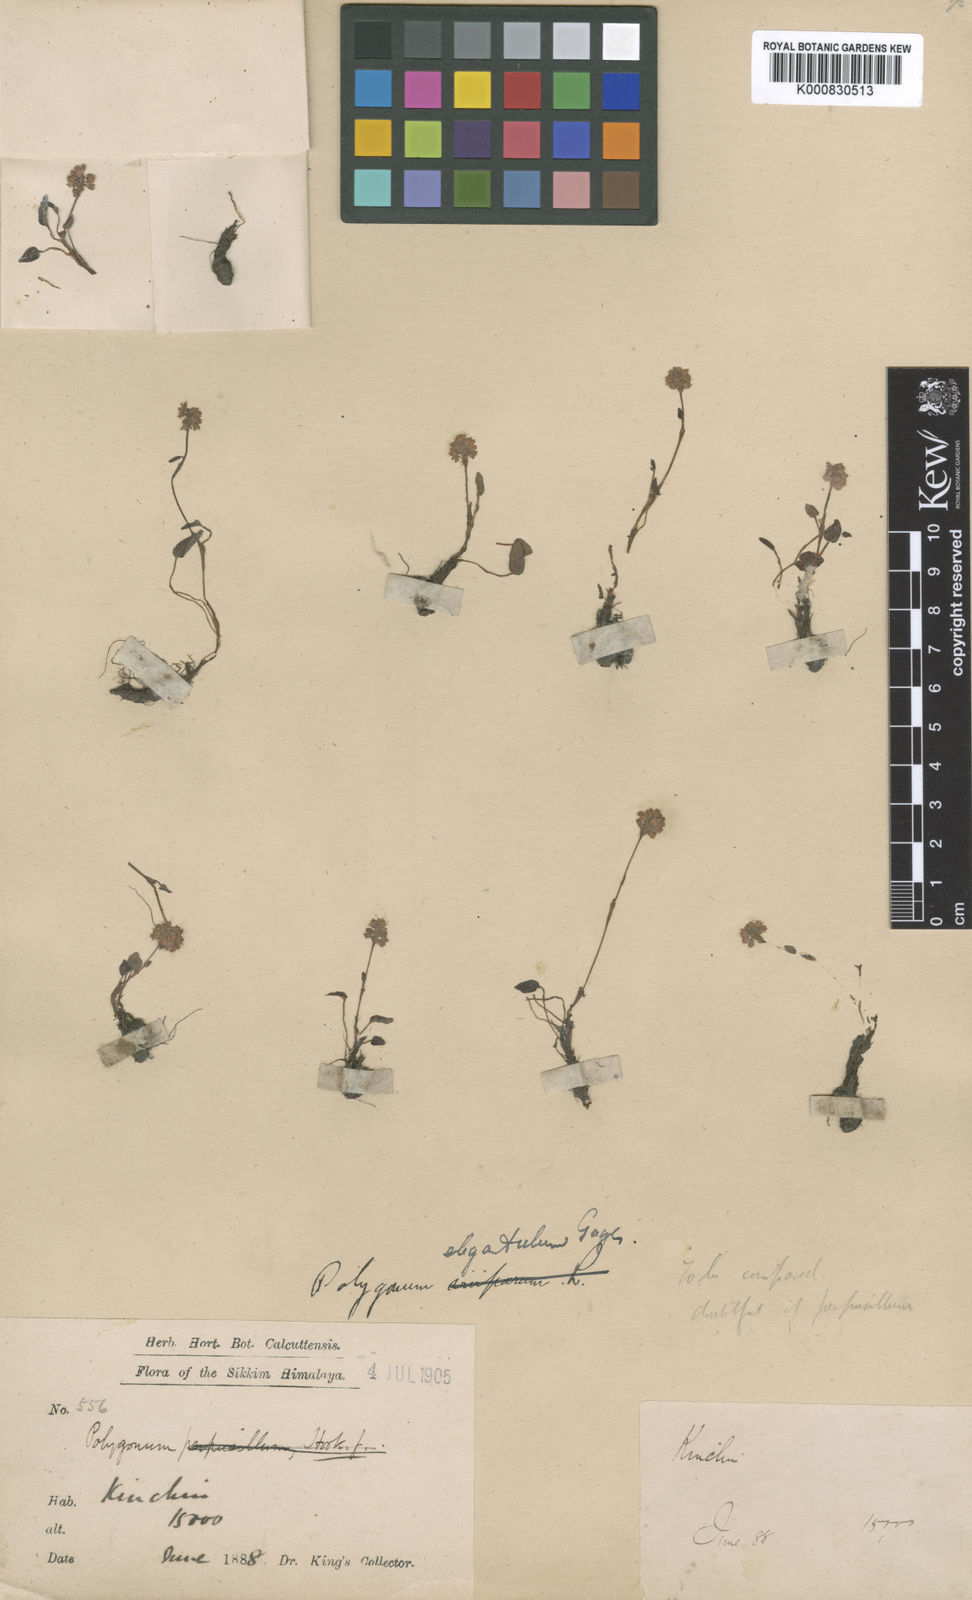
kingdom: Plantae
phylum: Tracheophyta
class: Magnoliopsida
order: Caryophyllales
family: Polygonaceae
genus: Polygonum
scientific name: Polygonum
